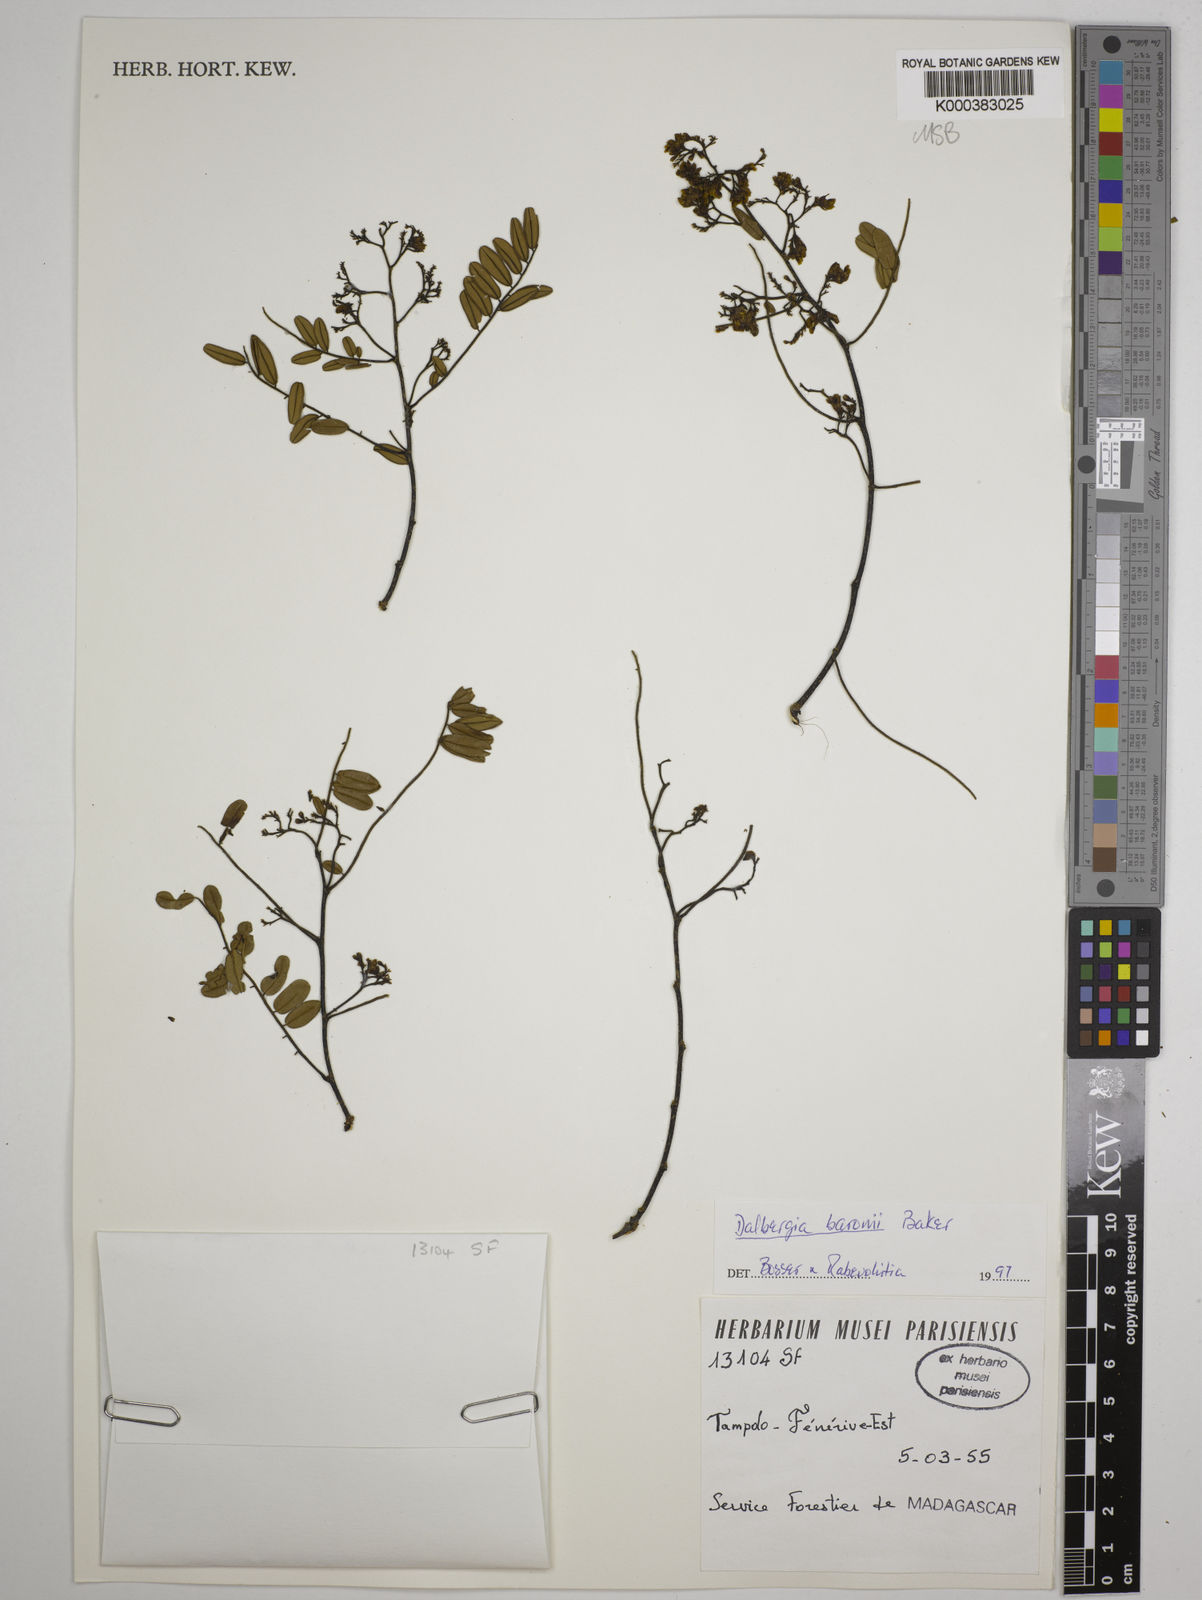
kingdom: Plantae
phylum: Tracheophyta
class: Magnoliopsida
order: Fabales
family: Fabaceae
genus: Dalbergia
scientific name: Dalbergia baronii
